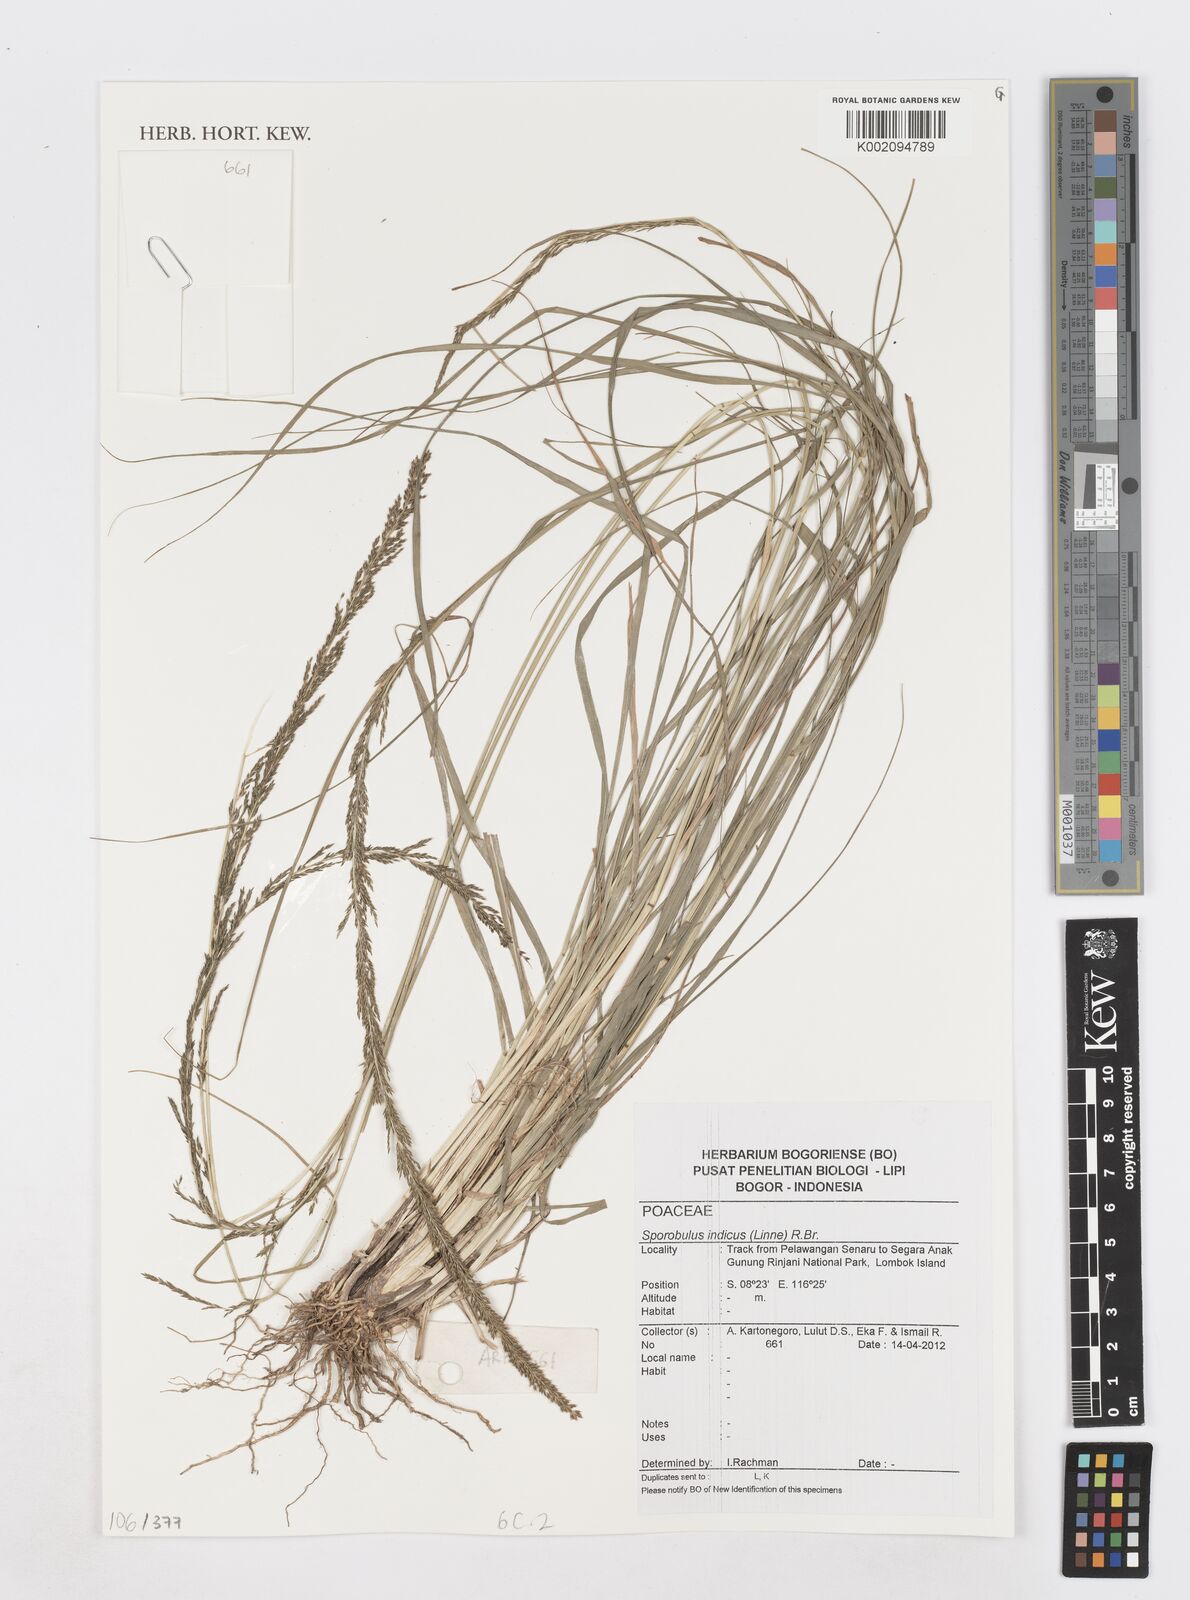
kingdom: Plantae
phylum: Tracheophyta
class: Liliopsida
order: Poales
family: Poaceae
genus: Sporobolus
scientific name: Sporobolus indicus
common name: Smut grass
